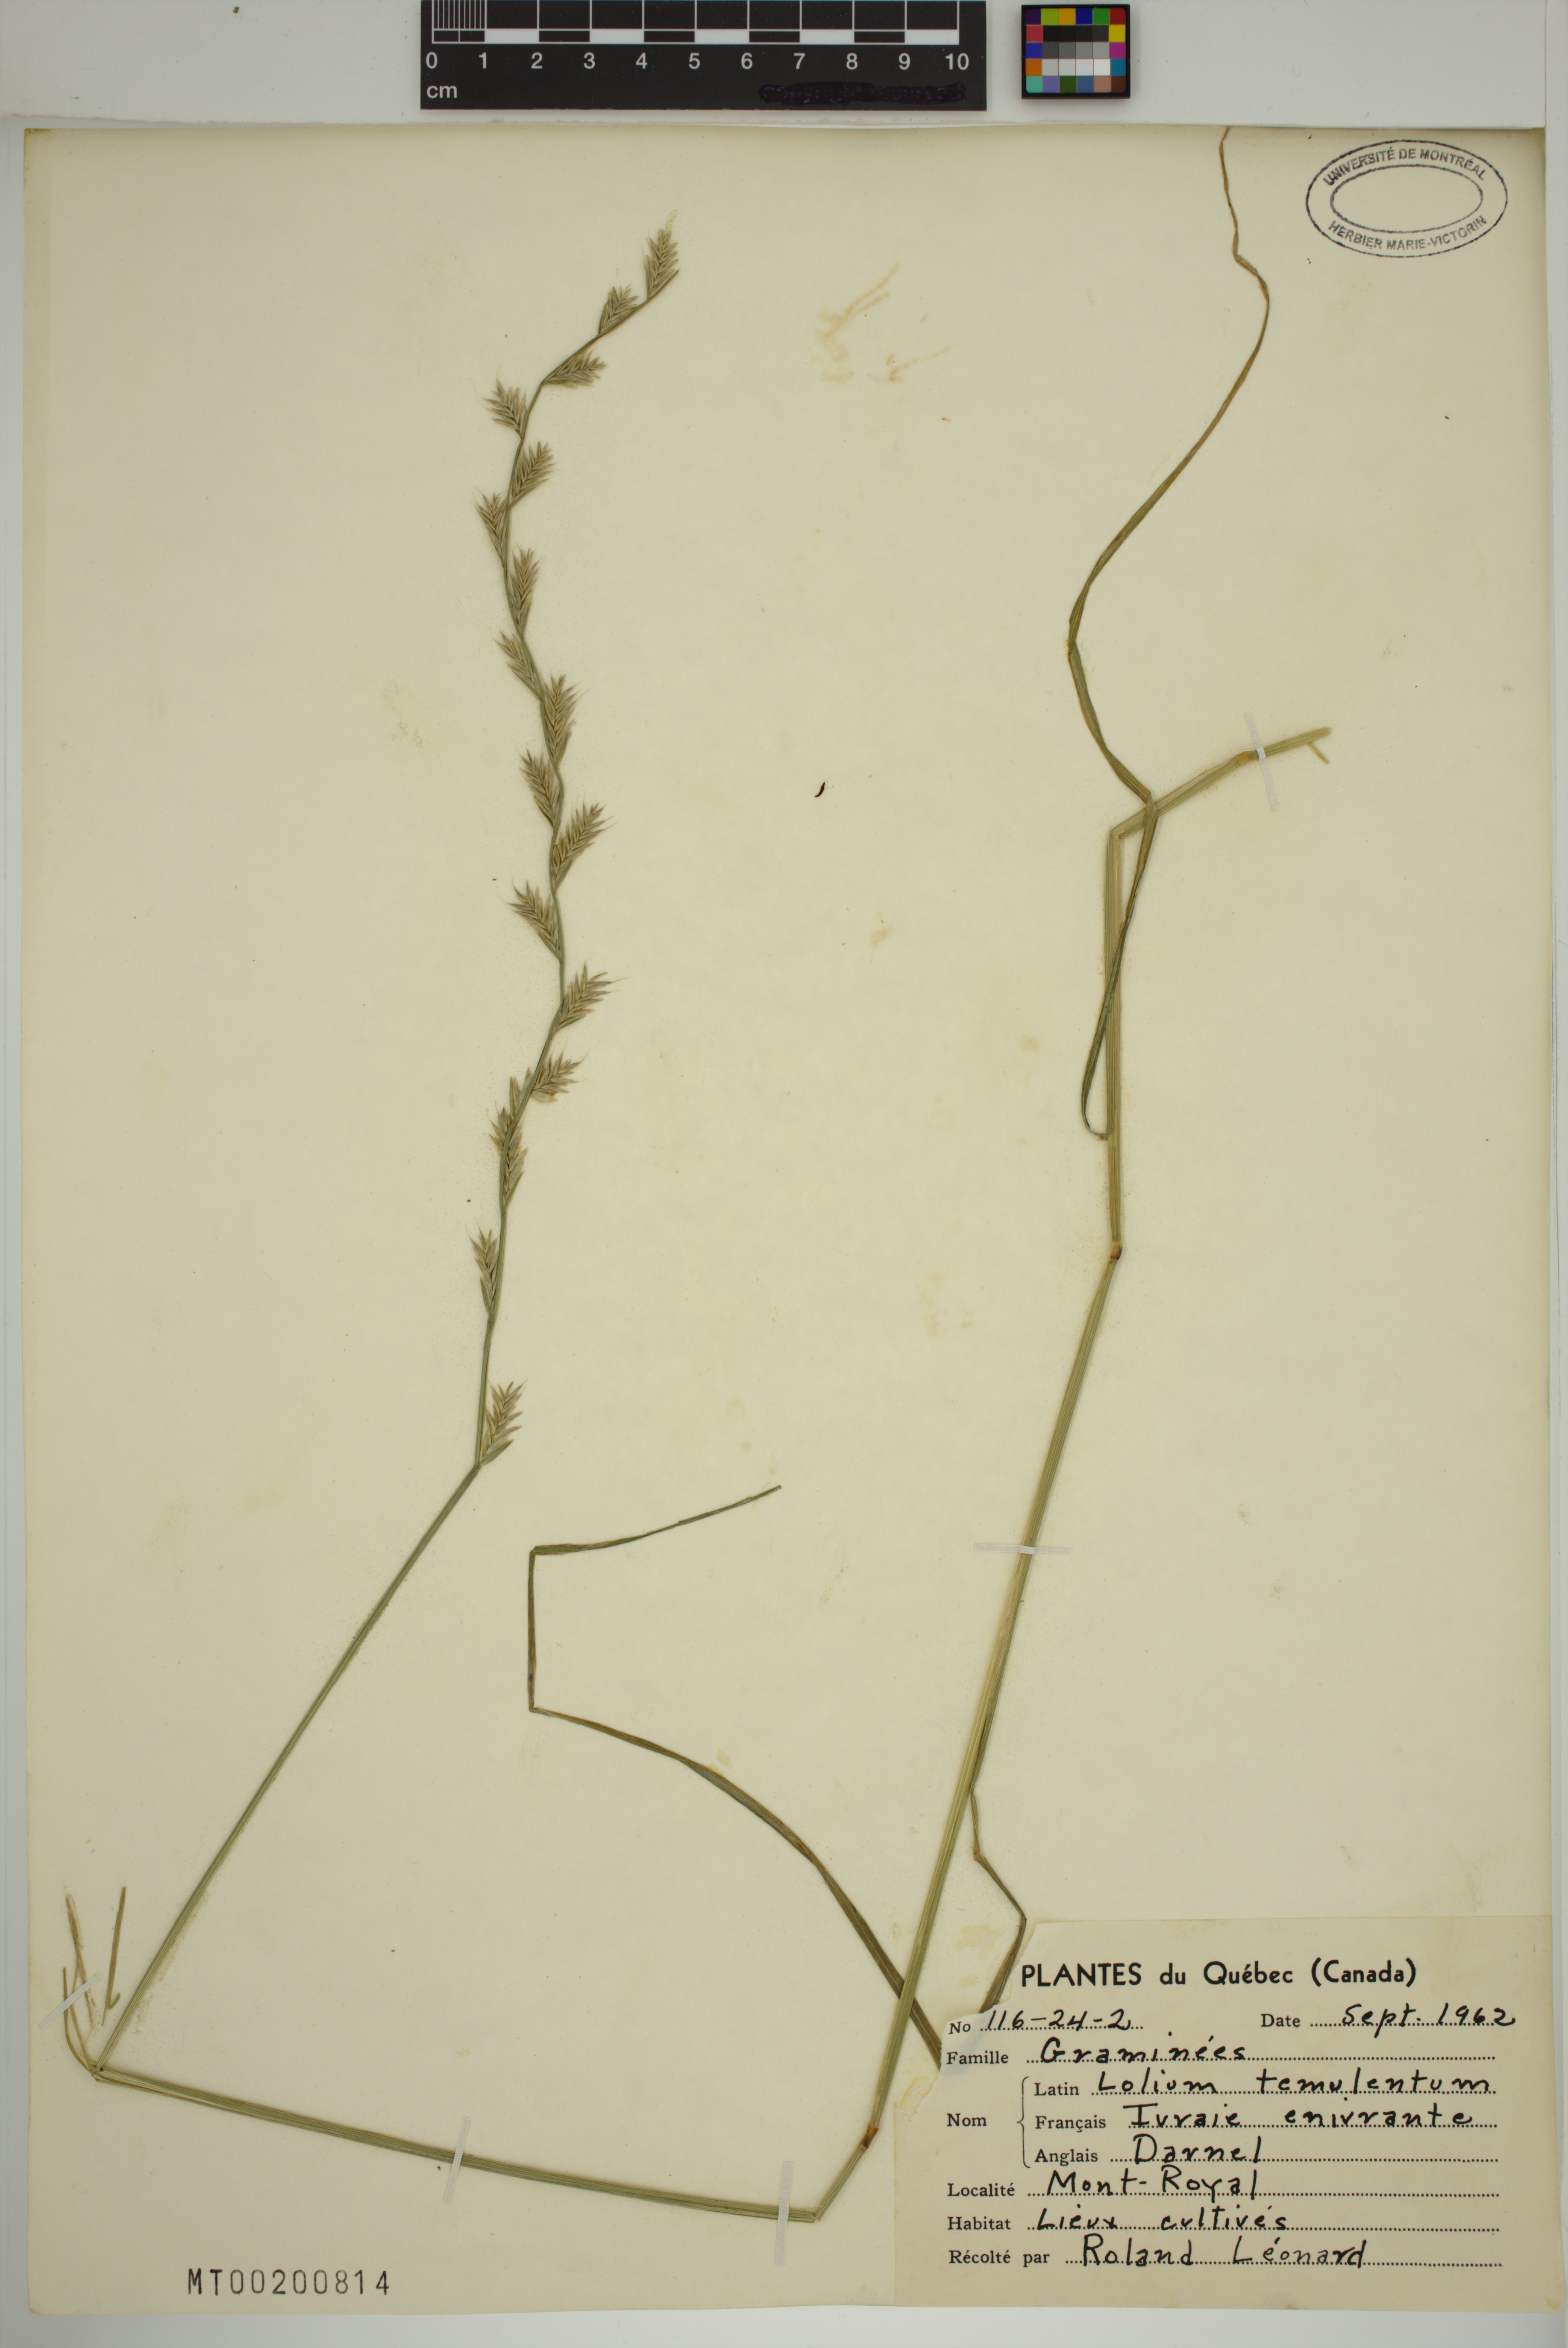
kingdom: Plantae
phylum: Tracheophyta
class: Liliopsida
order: Poales
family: Poaceae
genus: Lolium
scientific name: Lolium temulentum
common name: Darnel
